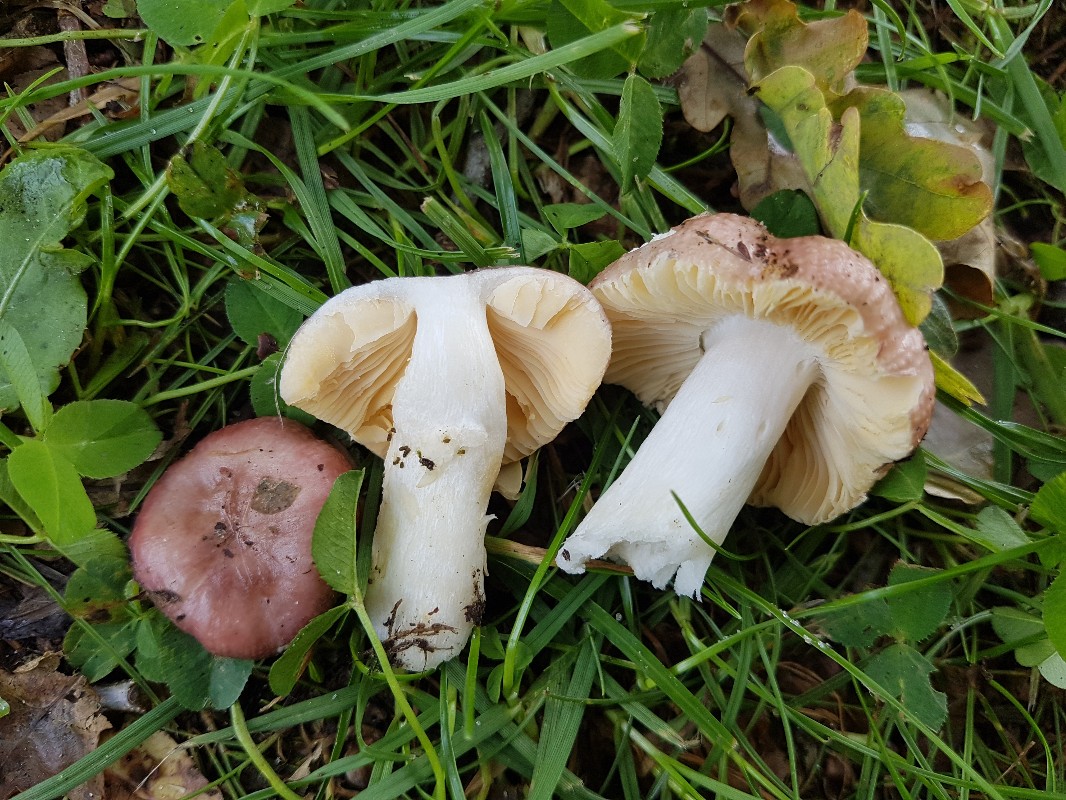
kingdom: Fungi
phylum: Basidiomycota
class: Agaricomycetes
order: Russulales
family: Russulaceae
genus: Russula
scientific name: Russula odorata
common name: duft-skørhat
